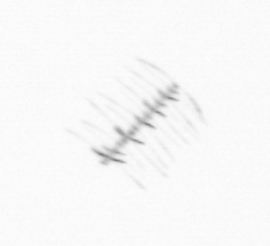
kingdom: Chromista
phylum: Ochrophyta
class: Bacillariophyceae
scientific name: Bacillariophyceae
